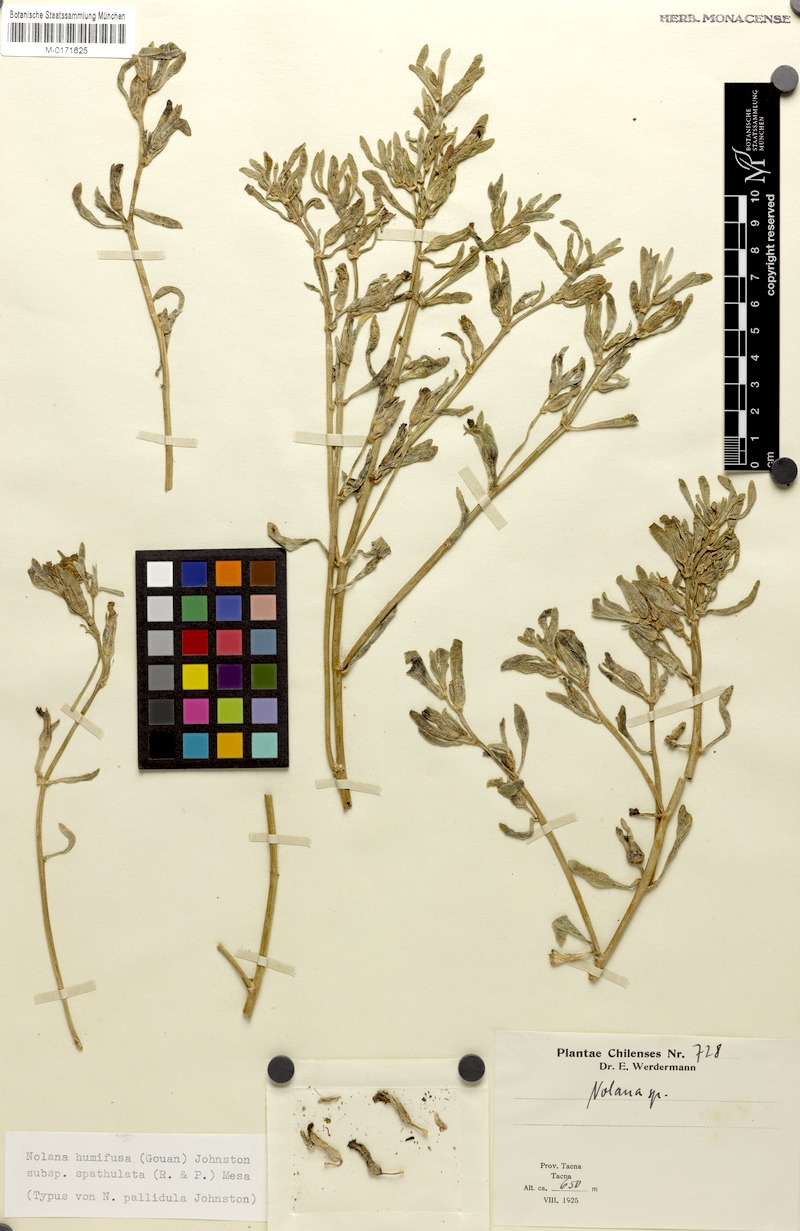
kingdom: Plantae
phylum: Tracheophyta
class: Magnoliopsida
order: Solanales
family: Solanaceae
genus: Nolana
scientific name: Nolana humifusa
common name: Trailing chilean-bellflower
